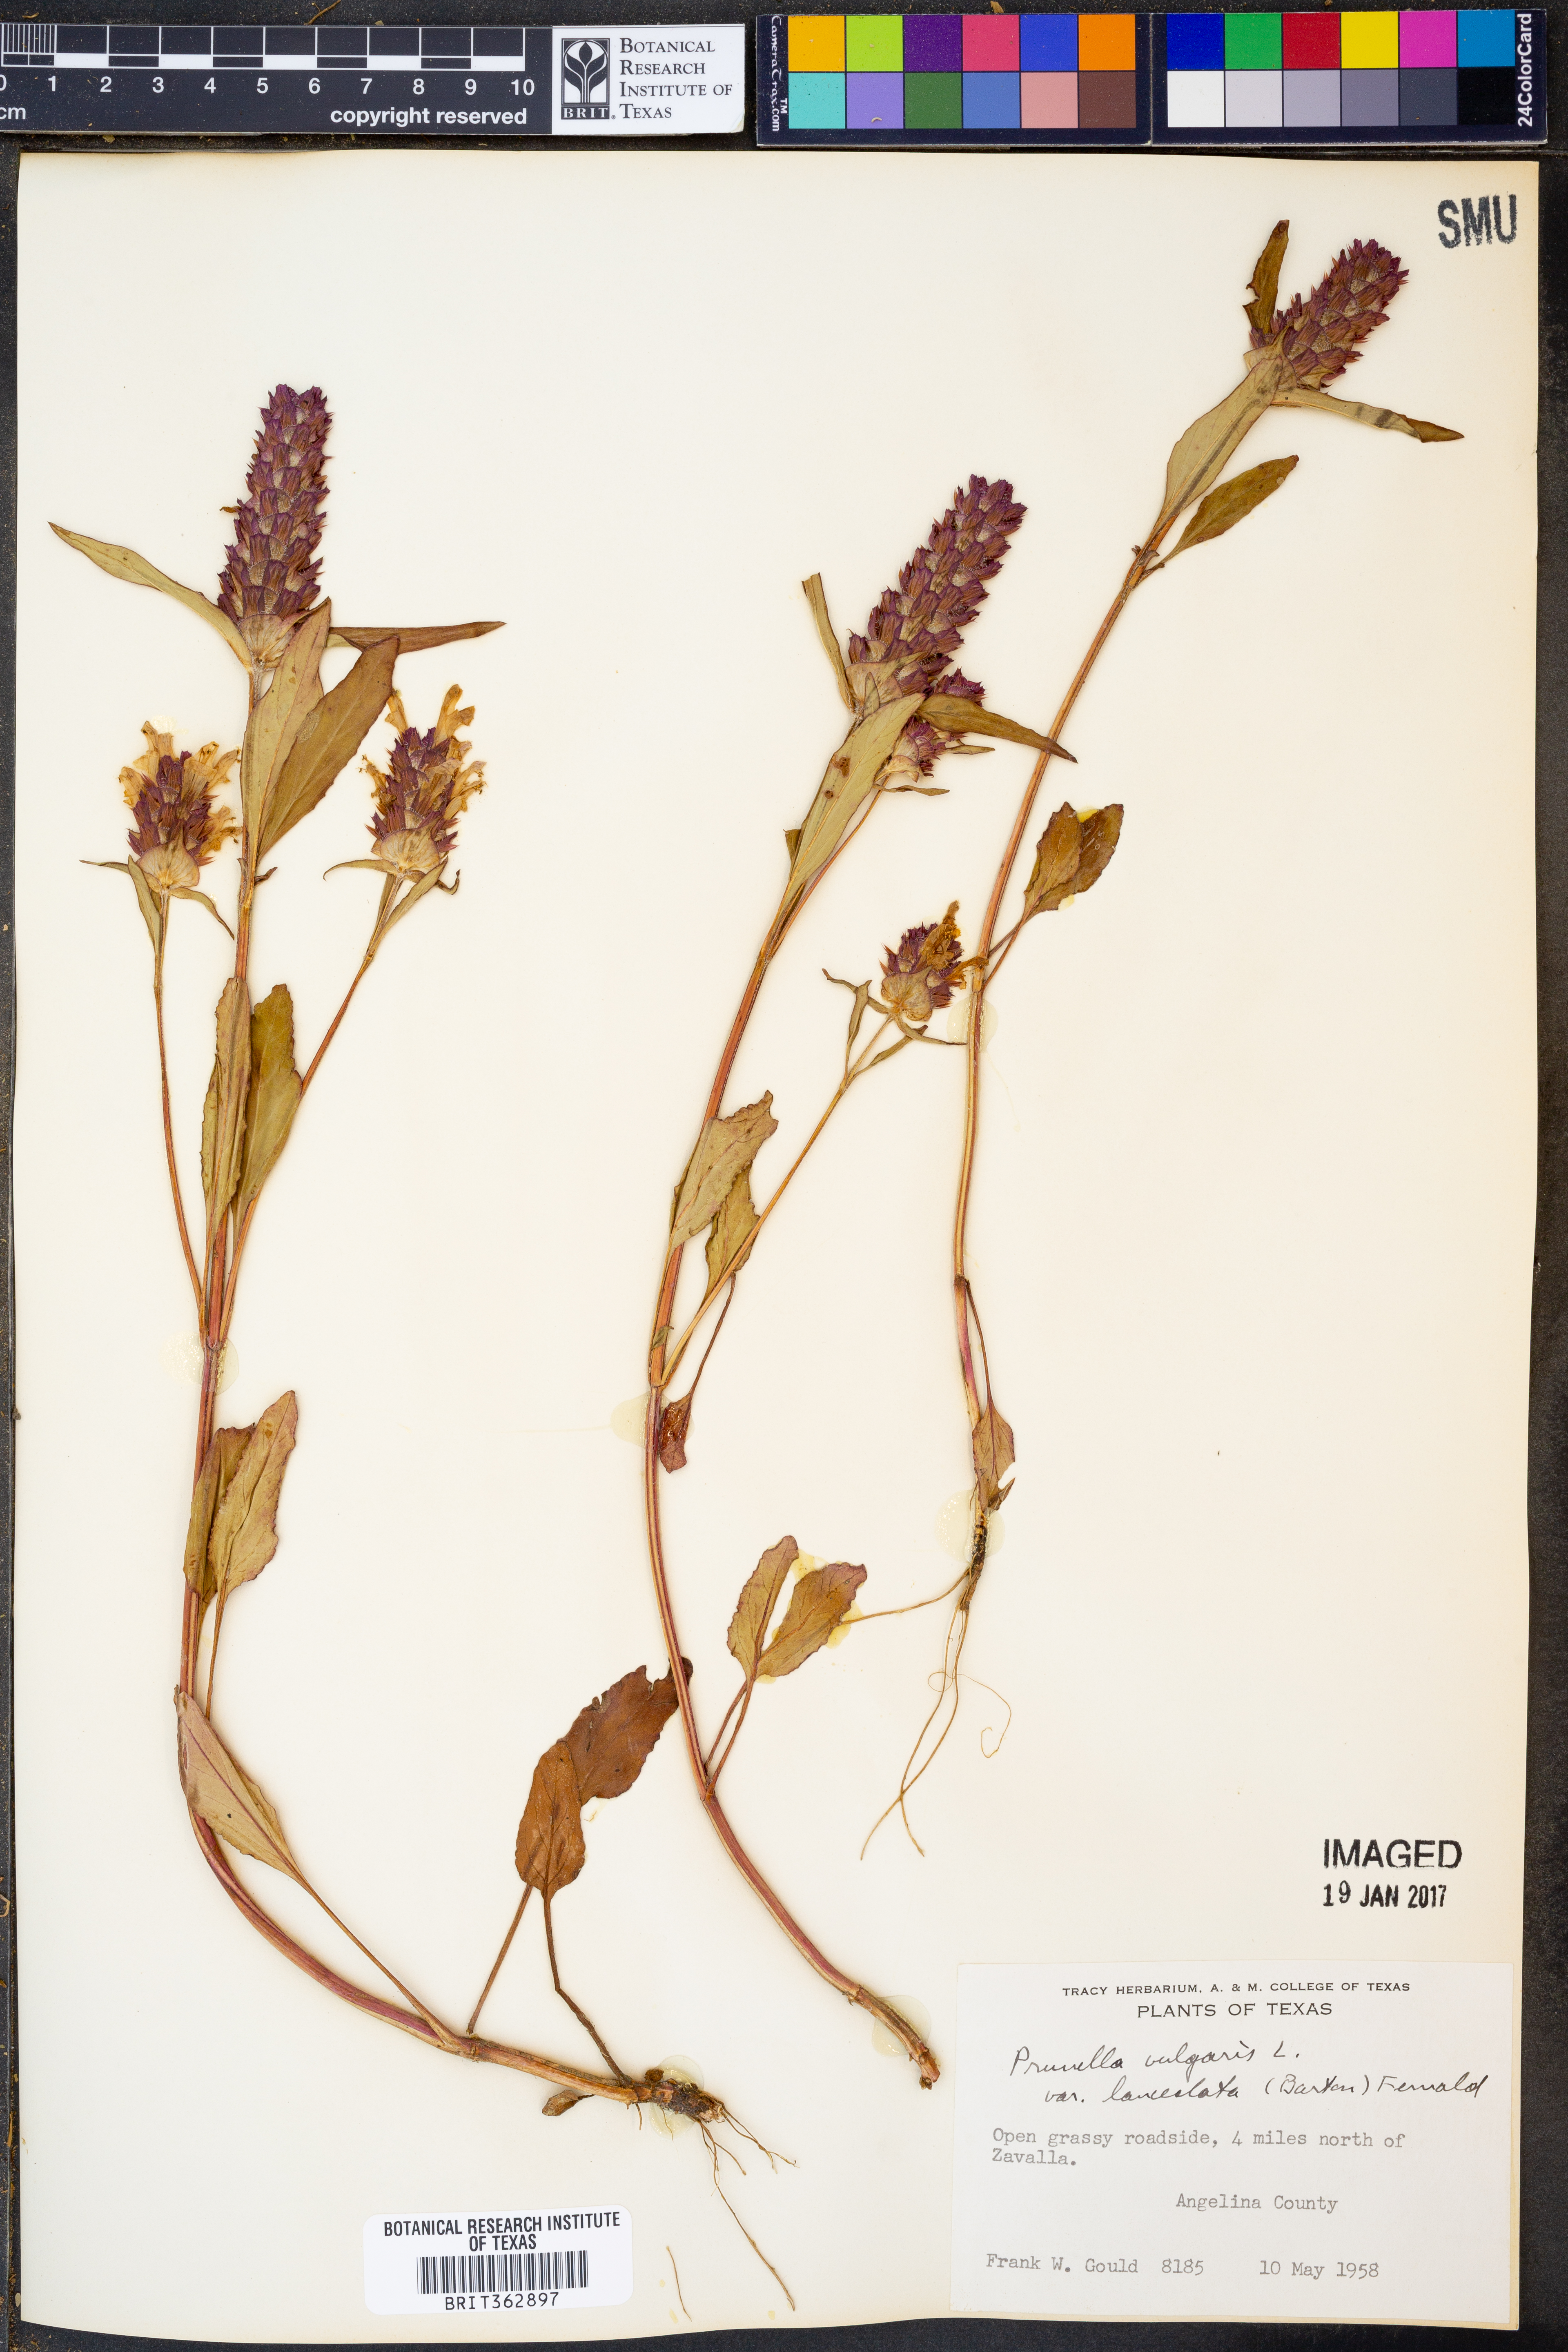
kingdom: Plantae
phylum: Tracheophyta
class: Magnoliopsida
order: Lamiales
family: Lamiaceae
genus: Prunella
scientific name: Prunella vulgaris
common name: Heal-all
